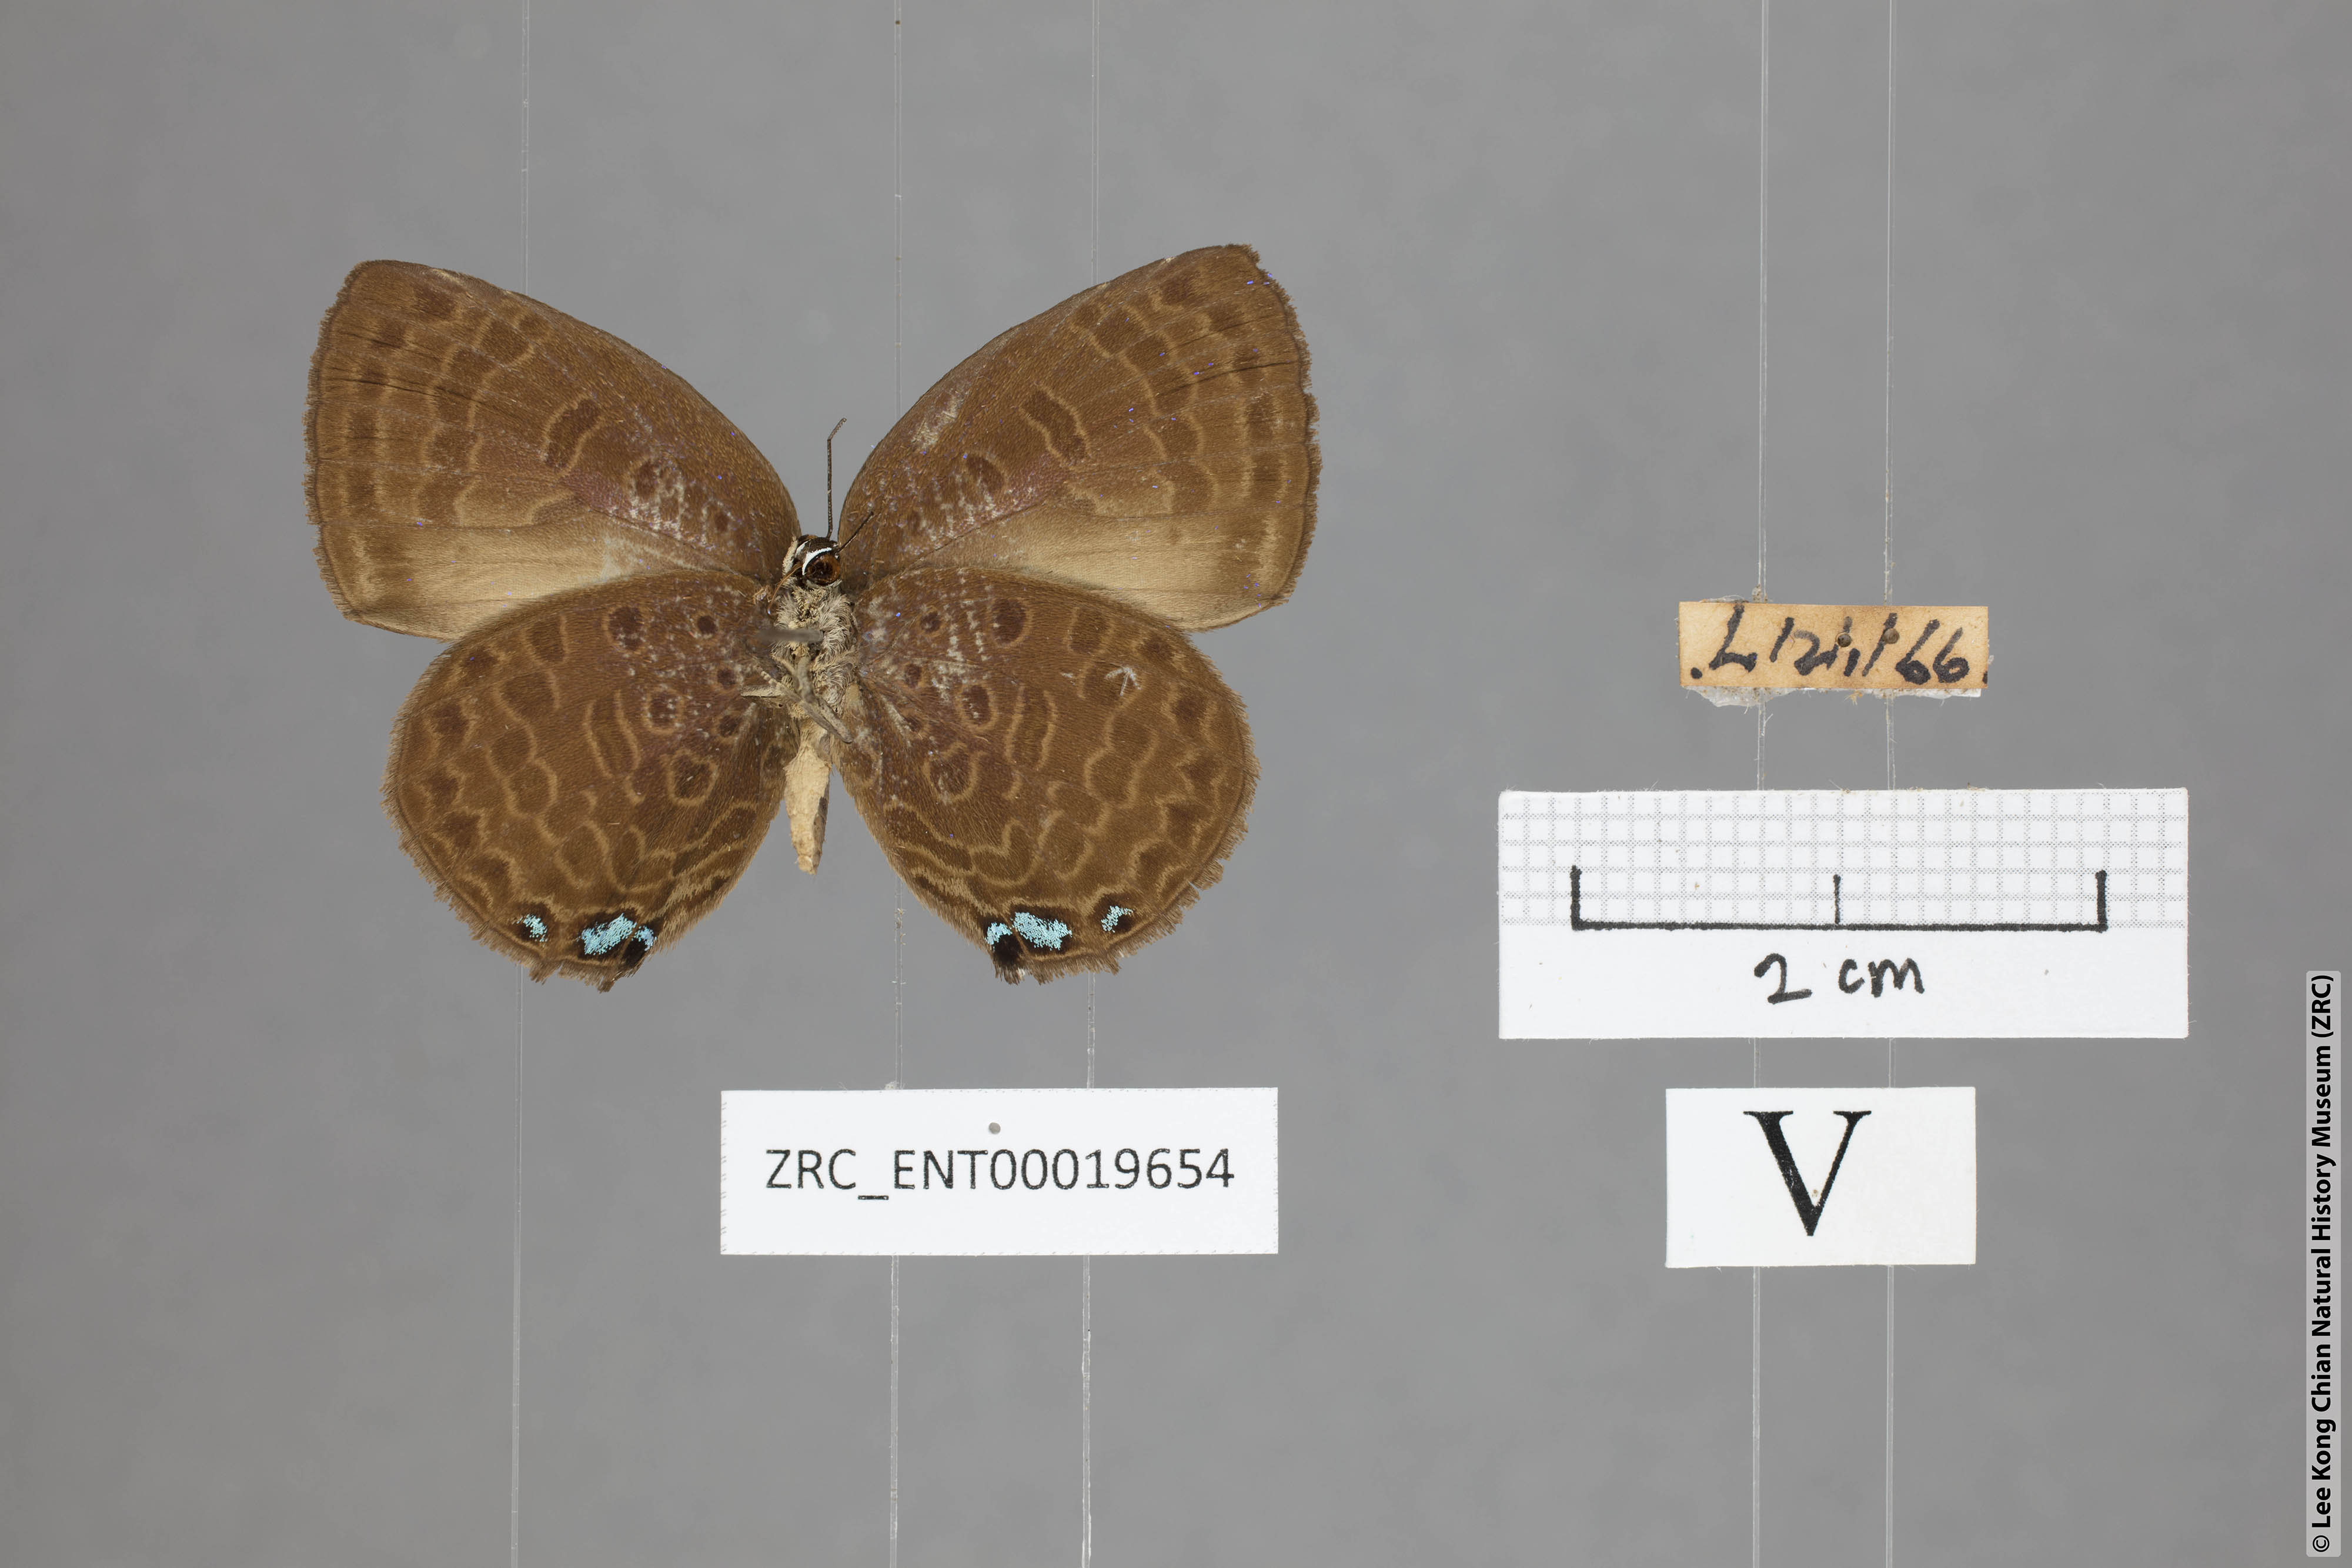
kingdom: Animalia
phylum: Arthropoda
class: Insecta
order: Lepidoptera
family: Lycaenidae
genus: Arhopala
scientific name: Arhopala moolaina
